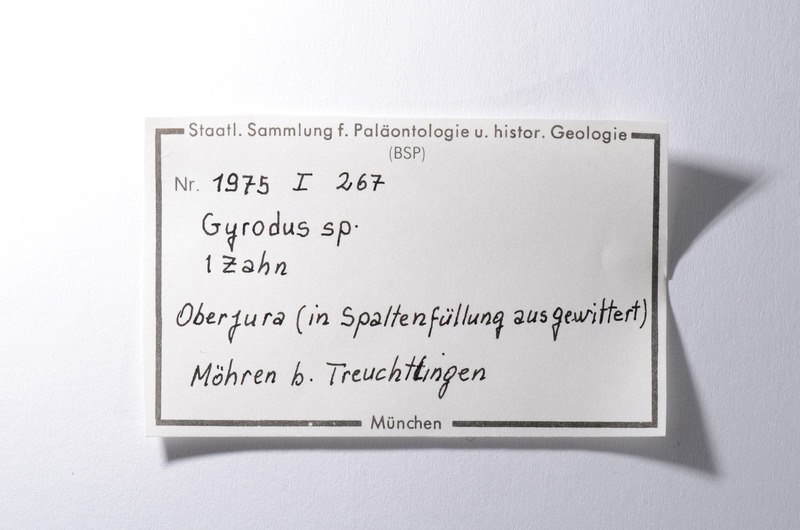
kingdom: Animalia
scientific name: Animalia
